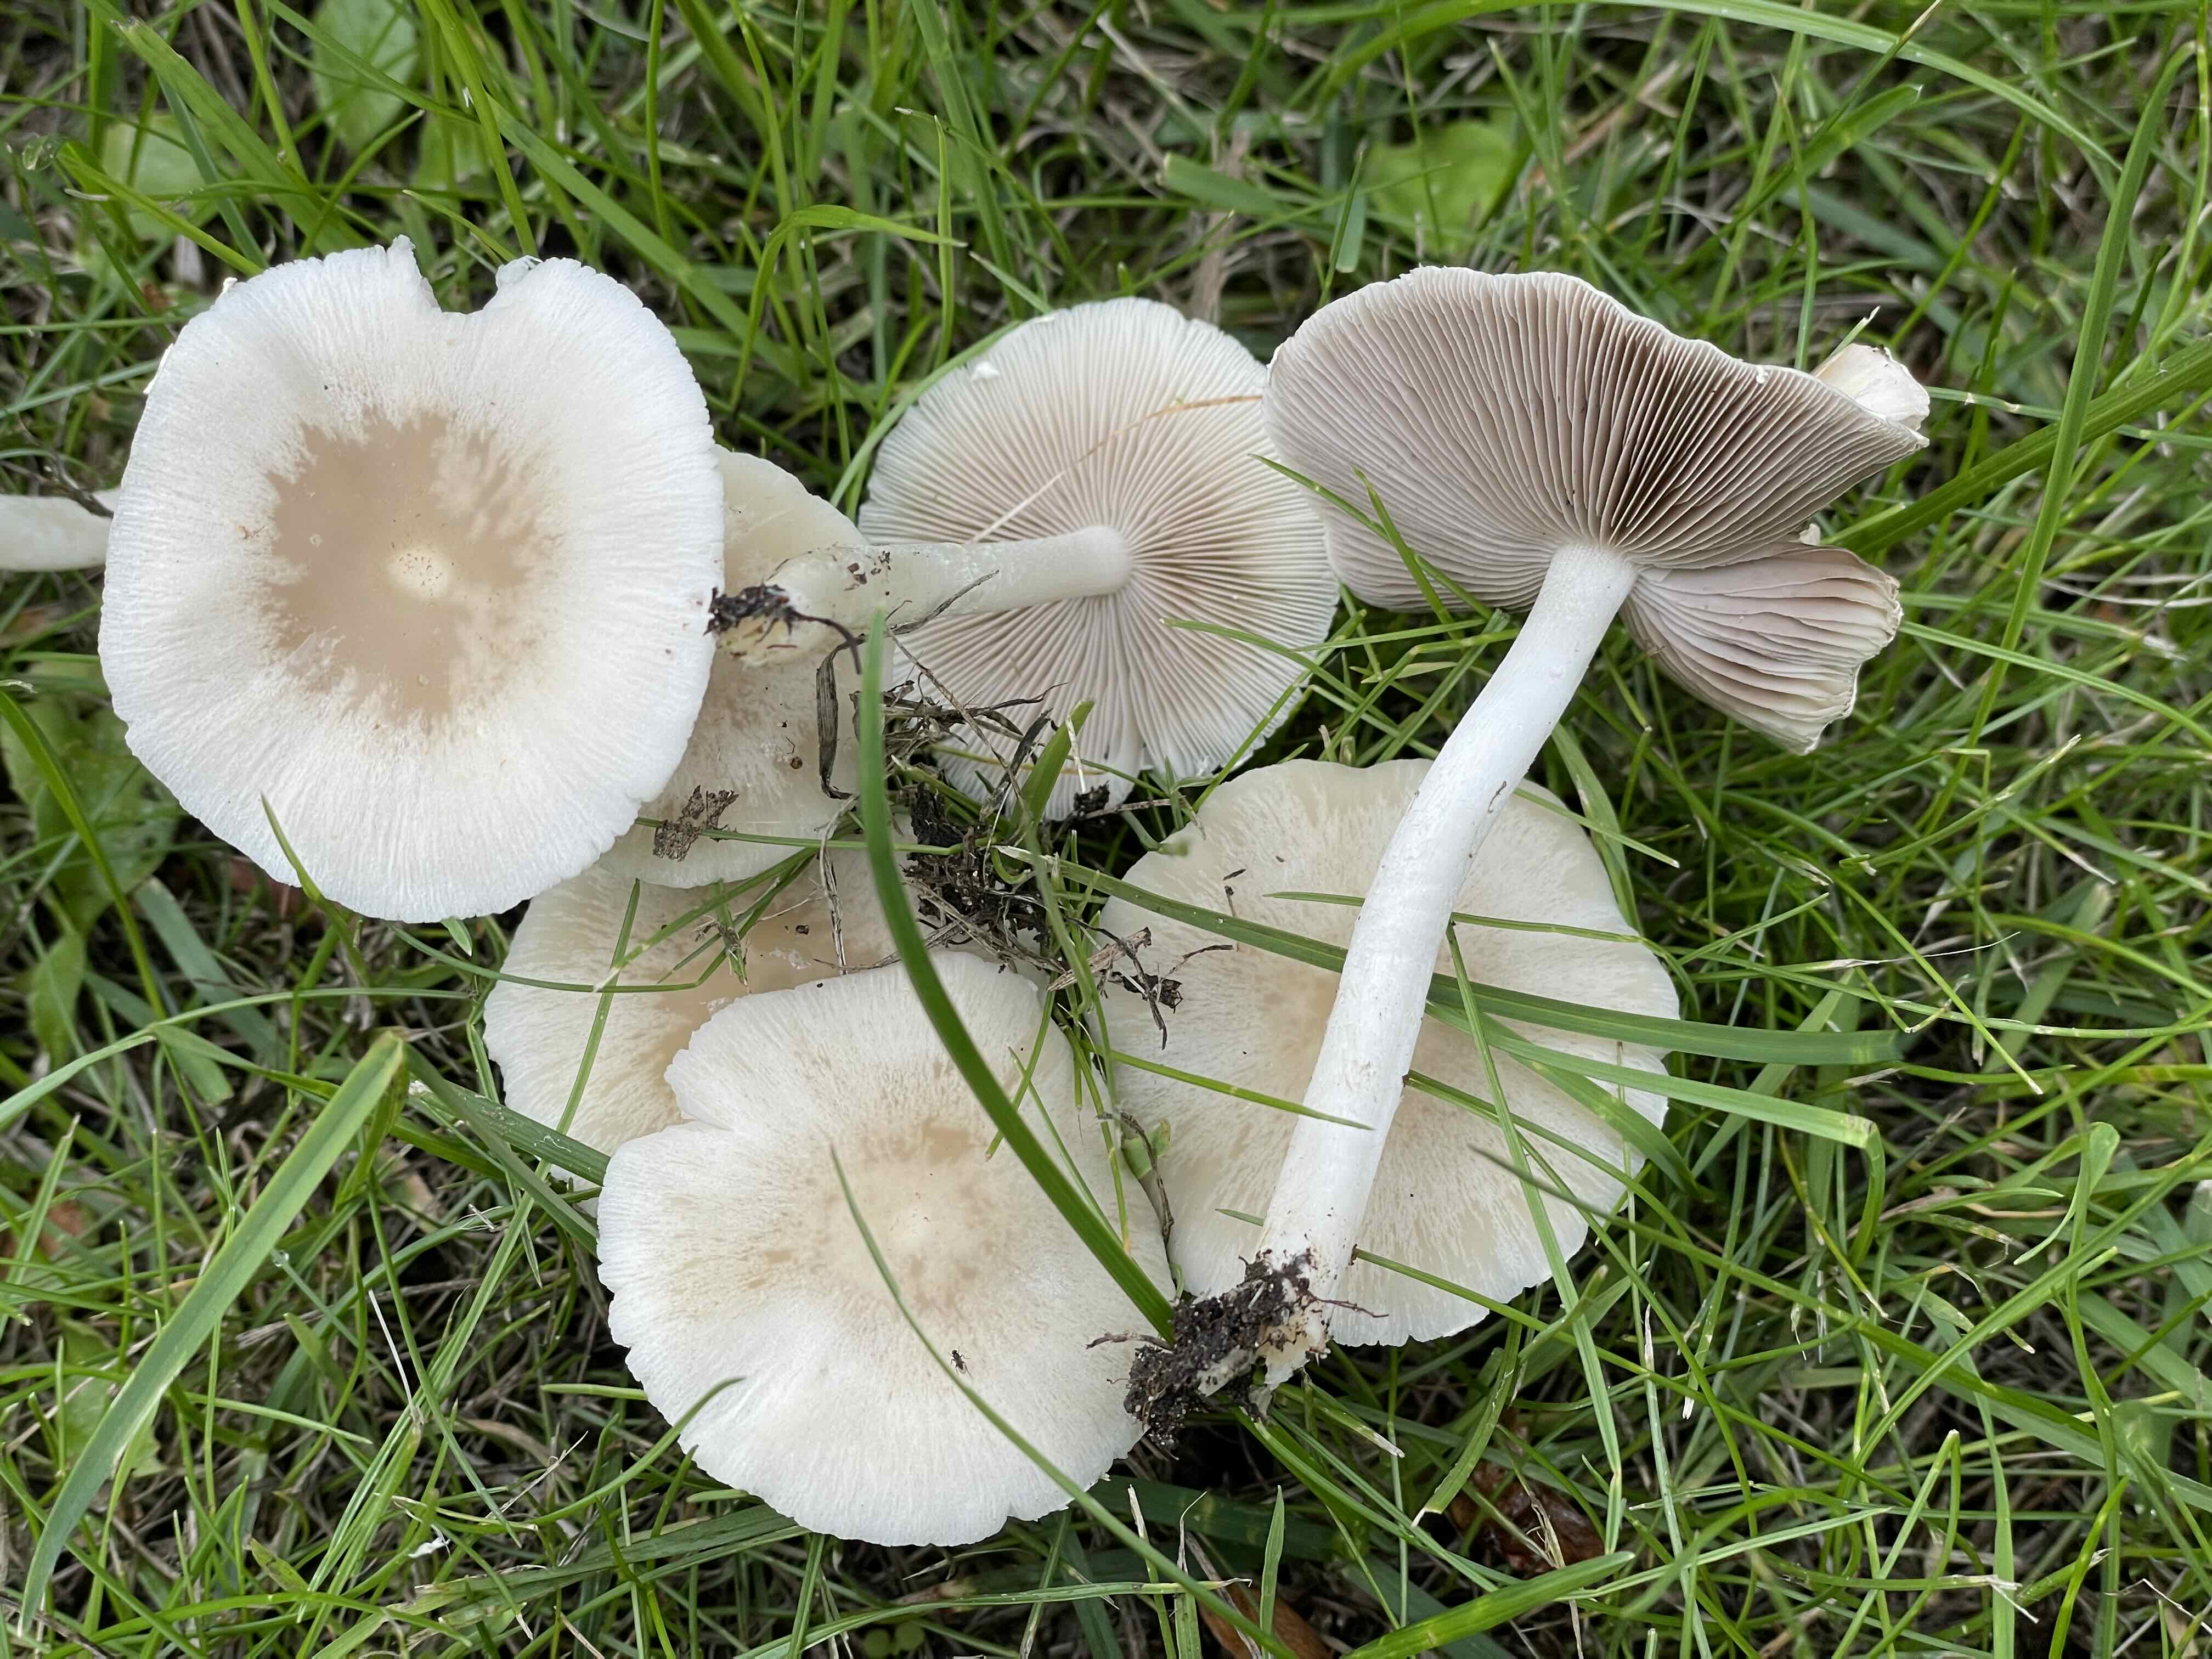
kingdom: Fungi
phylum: Basidiomycota
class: Agaricomycetes
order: Agaricales
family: Psathyrellaceae
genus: Candolleomyces
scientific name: Candolleomyces candolleanus
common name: Candolles mørkhat
